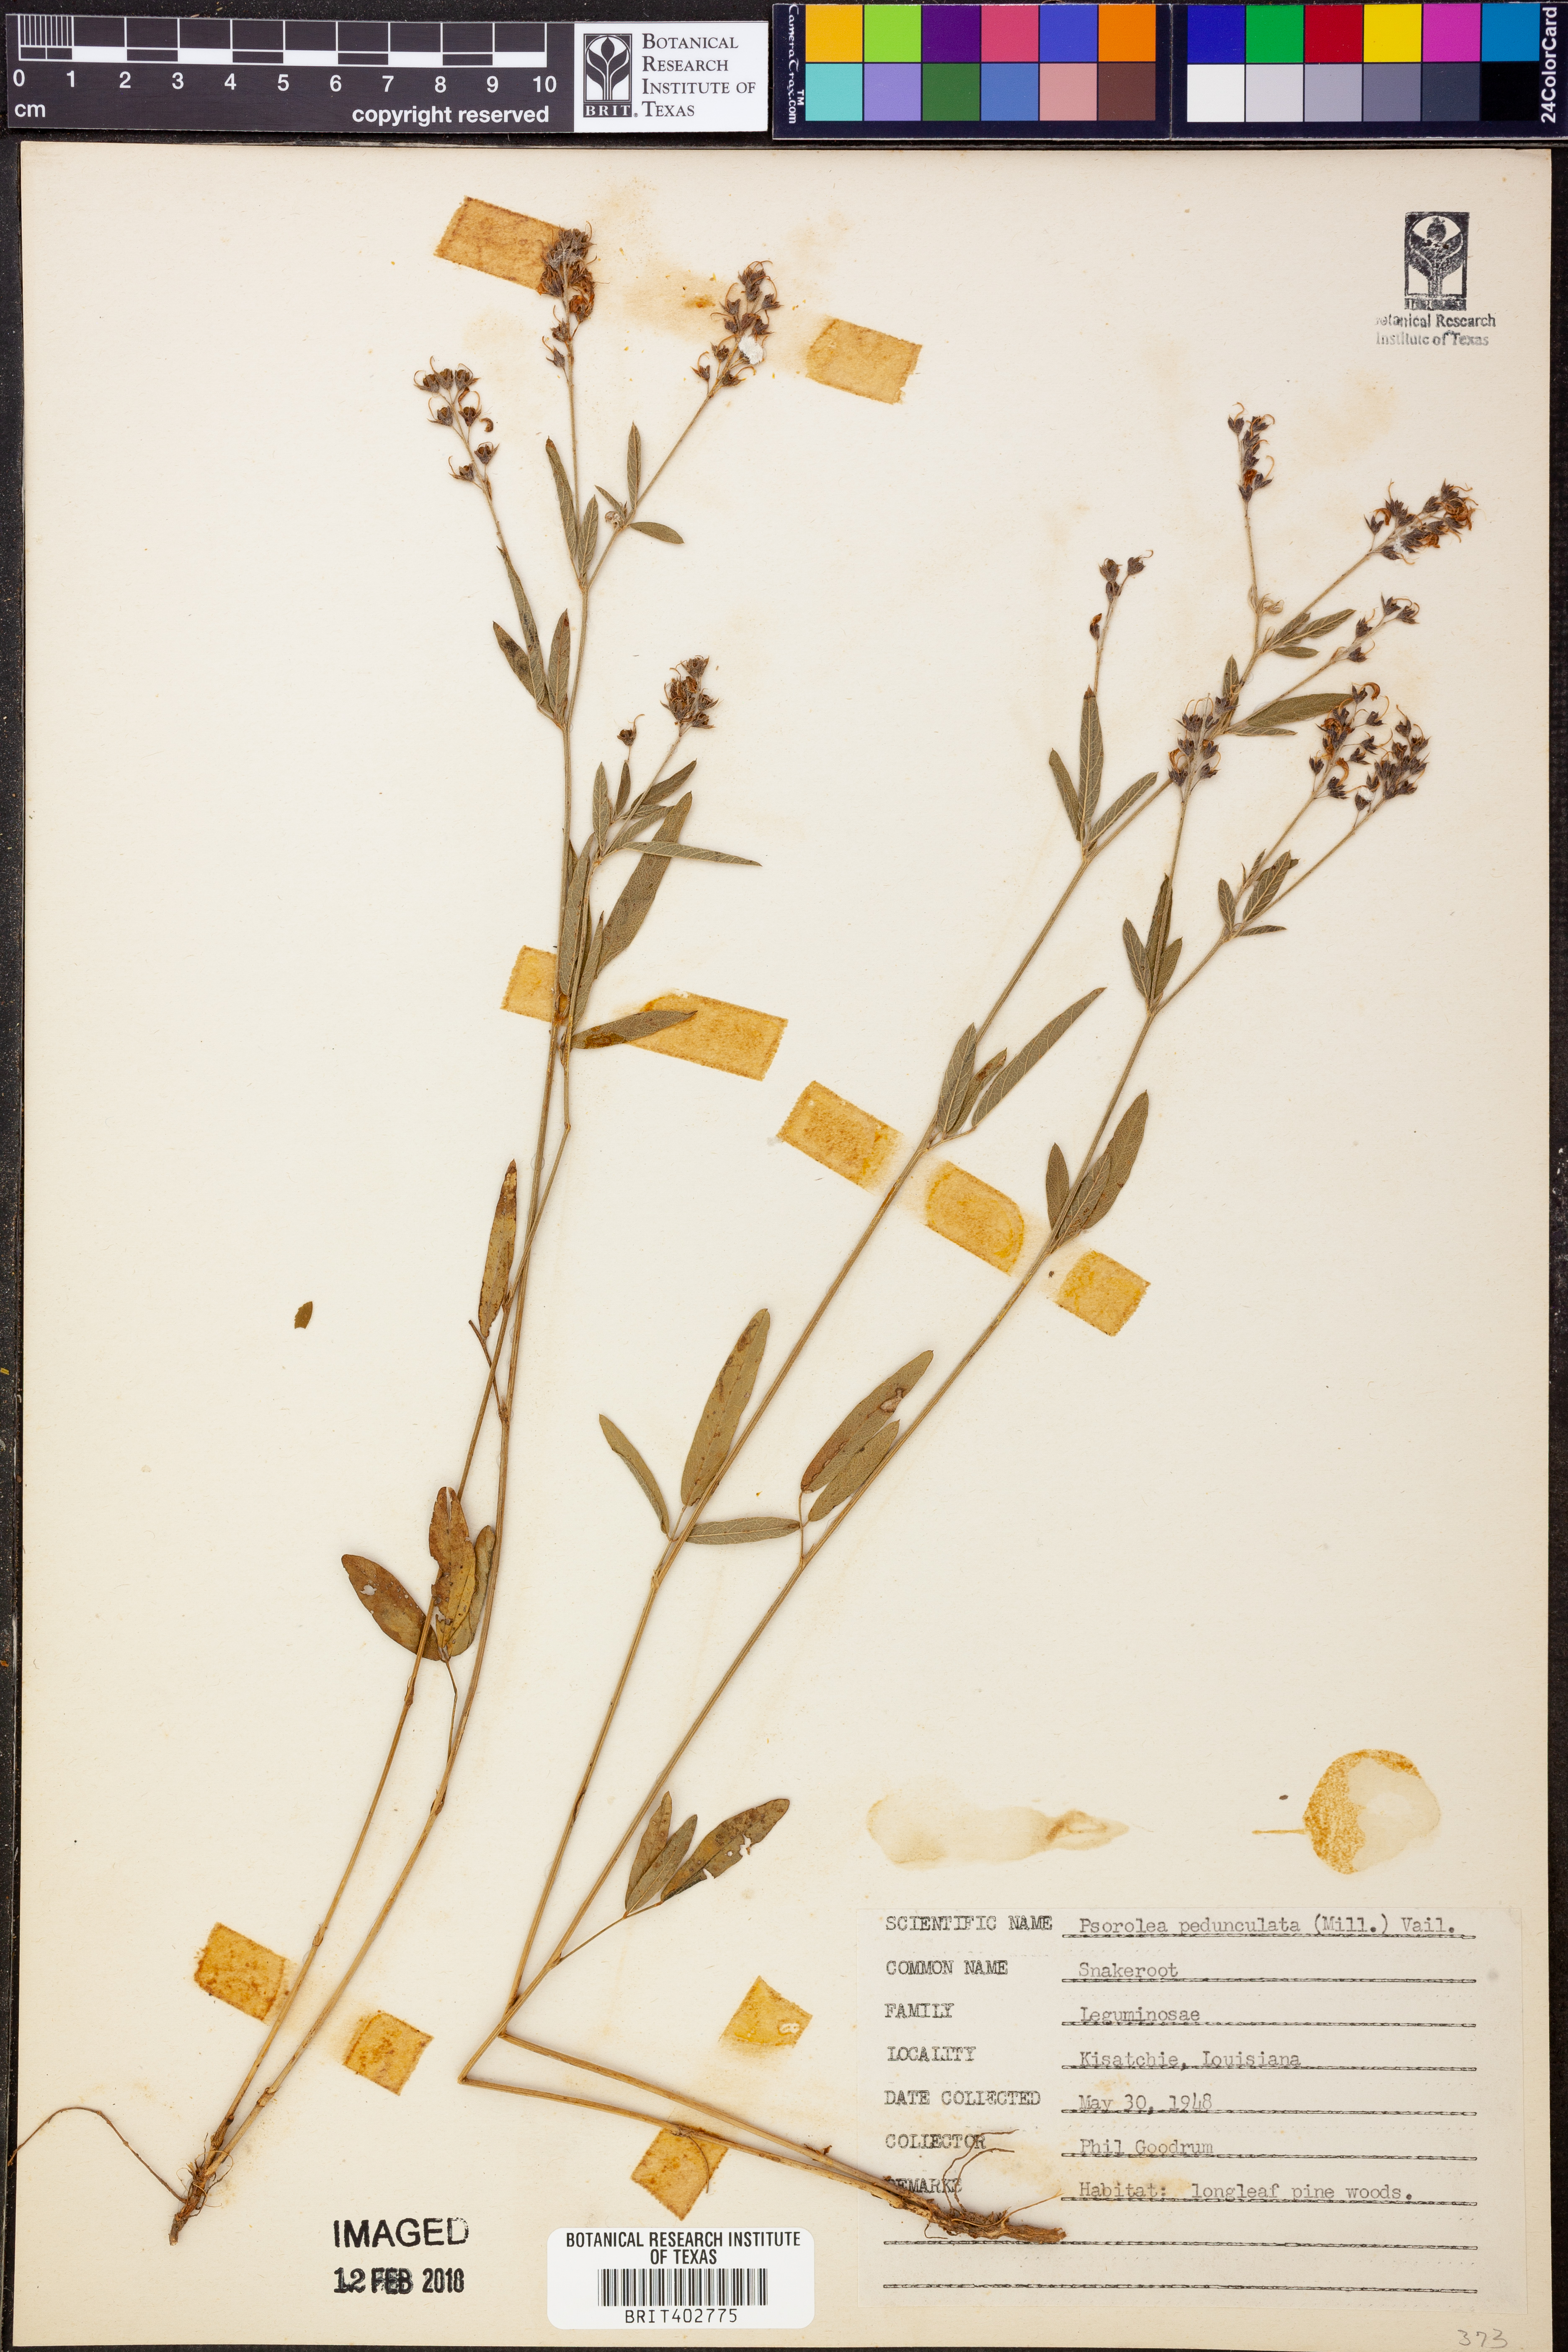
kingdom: Plantae
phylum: Tracheophyta
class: Magnoliopsida
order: Fabales
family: Fabaceae
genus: Orbexilum
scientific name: Orbexilum pedunculatum
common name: Sampson's snakeroot
